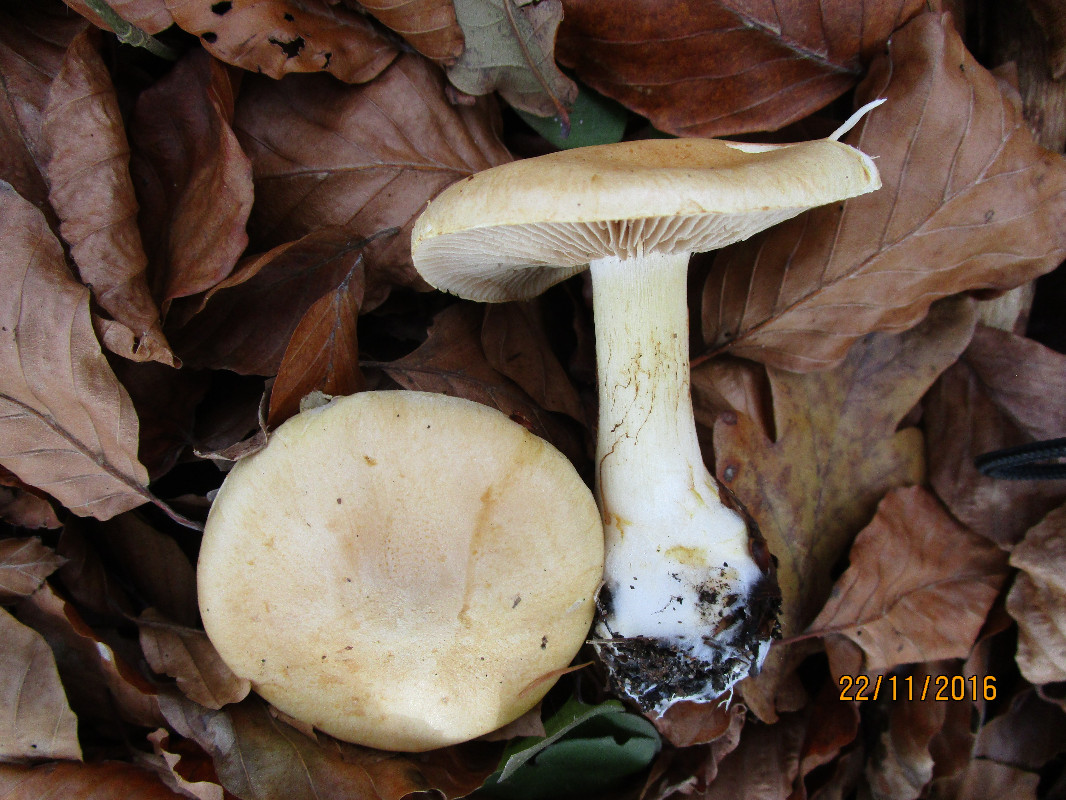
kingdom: Fungi
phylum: Basidiomycota
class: Agaricomycetes
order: Agaricales
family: Cortinariaceae
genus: Phlegmacium
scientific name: Phlegmacium cliduchus
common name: majs-slørhat
